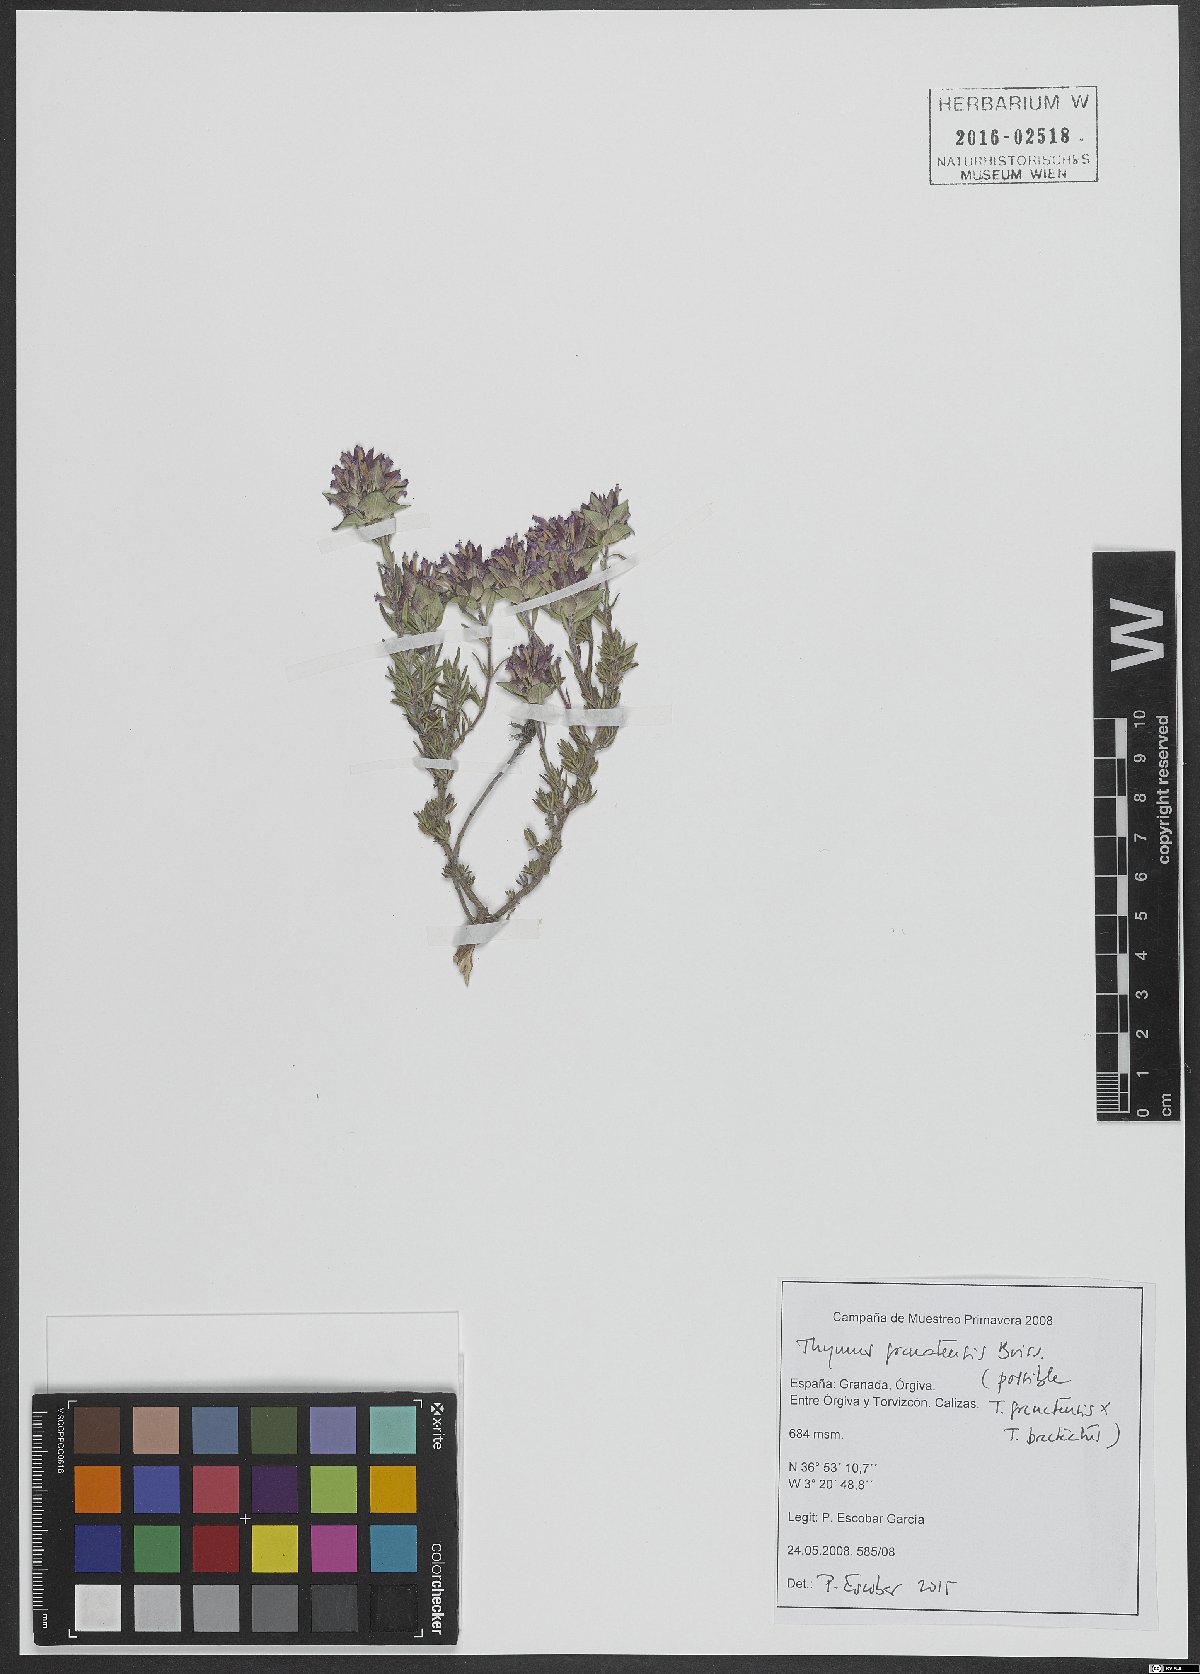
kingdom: Plantae
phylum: Tracheophyta
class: Magnoliopsida
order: Lamiales
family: Lamiaceae
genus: Thymus
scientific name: Thymus granatensis
